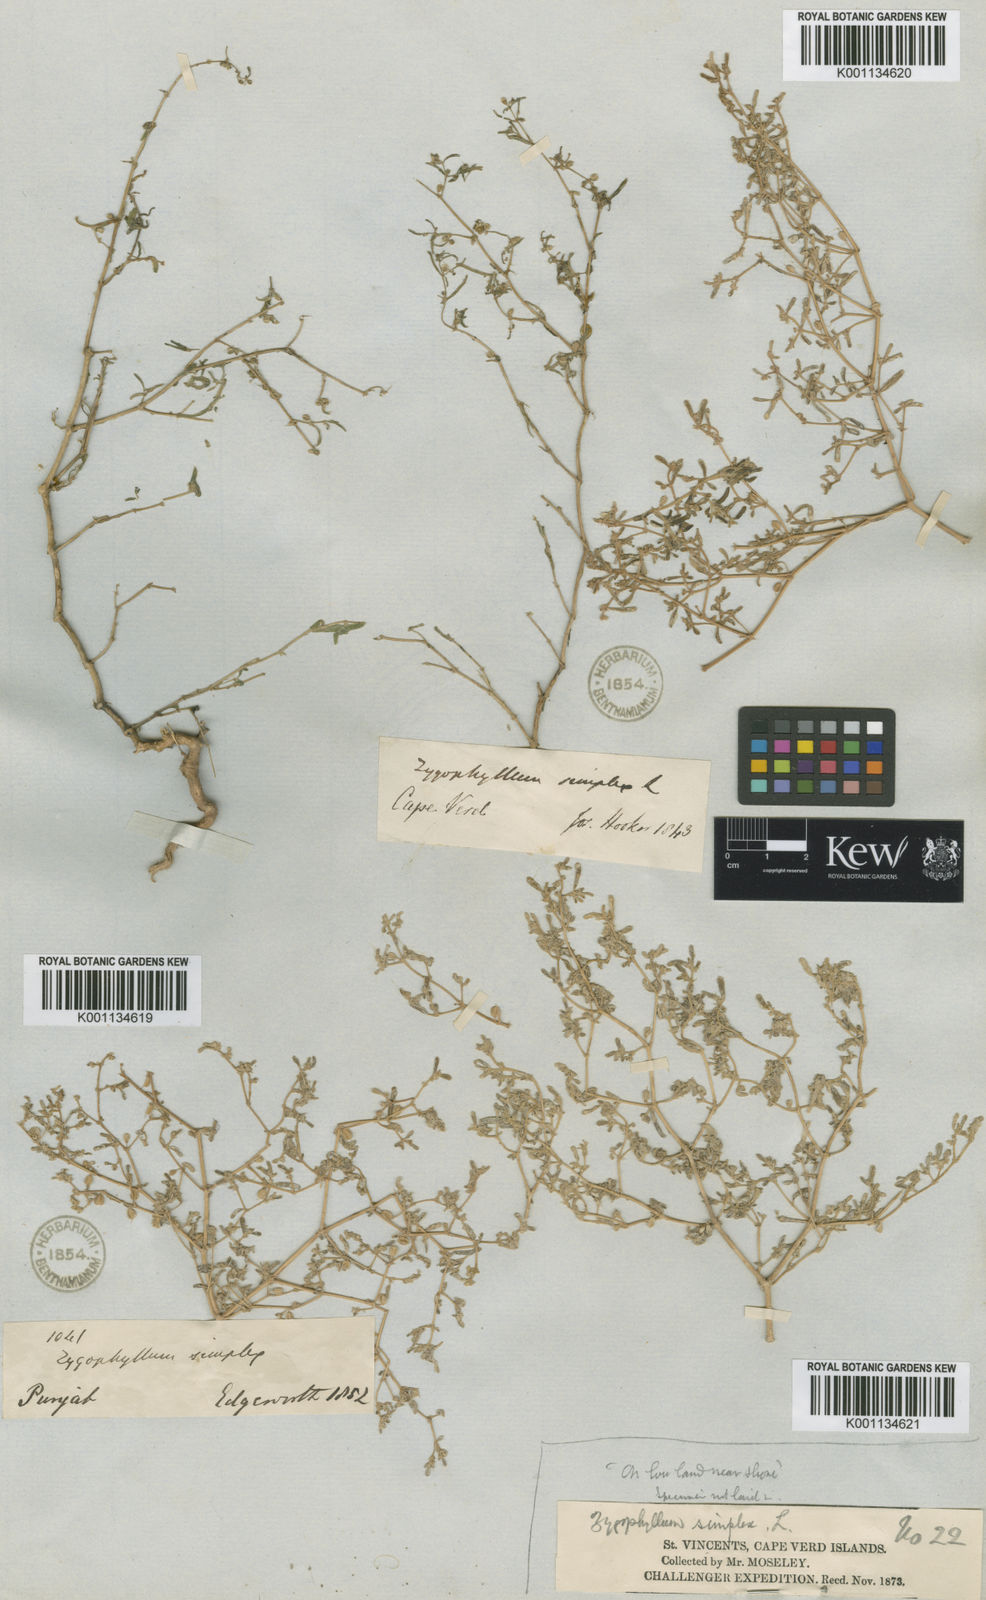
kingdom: Plantae
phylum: Tracheophyta
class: Magnoliopsida
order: Zygophyllales
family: Zygophyllaceae
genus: Tetraena
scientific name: Tetraena simplex
